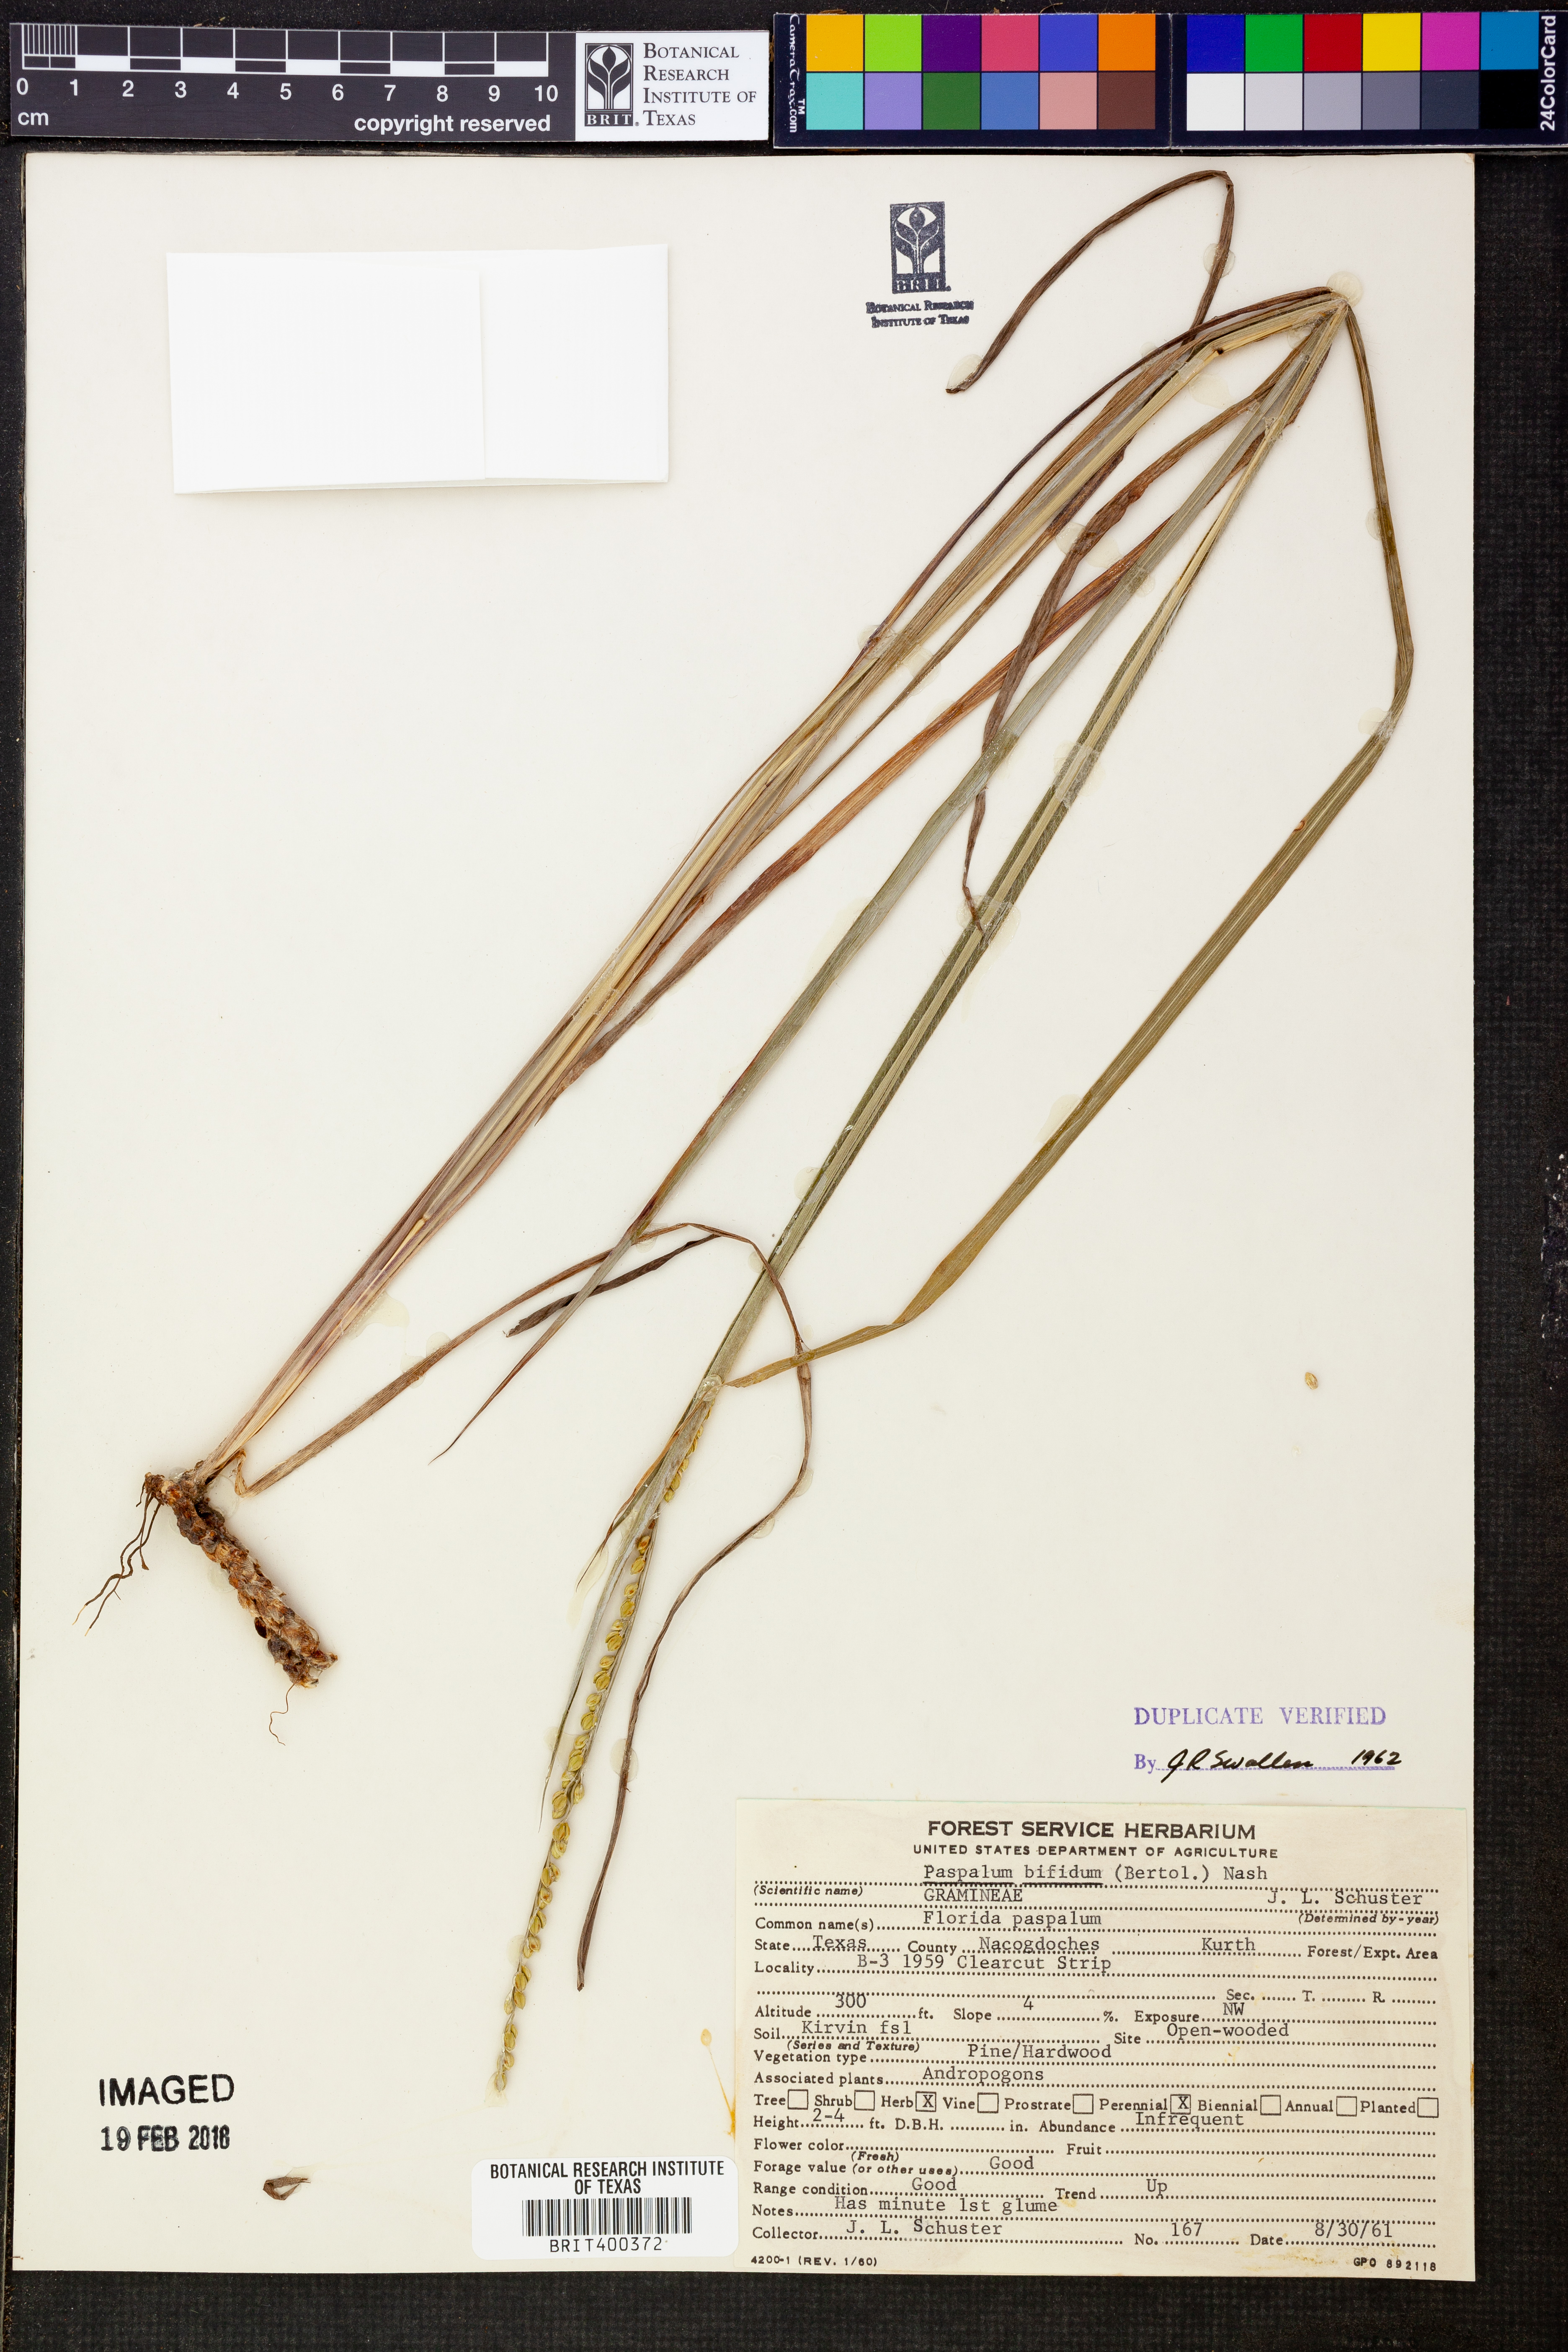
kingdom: Plantae
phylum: Tracheophyta
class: Liliopsida
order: Poales
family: Poaceae
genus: Paspalum
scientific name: Paspalum bifidum
